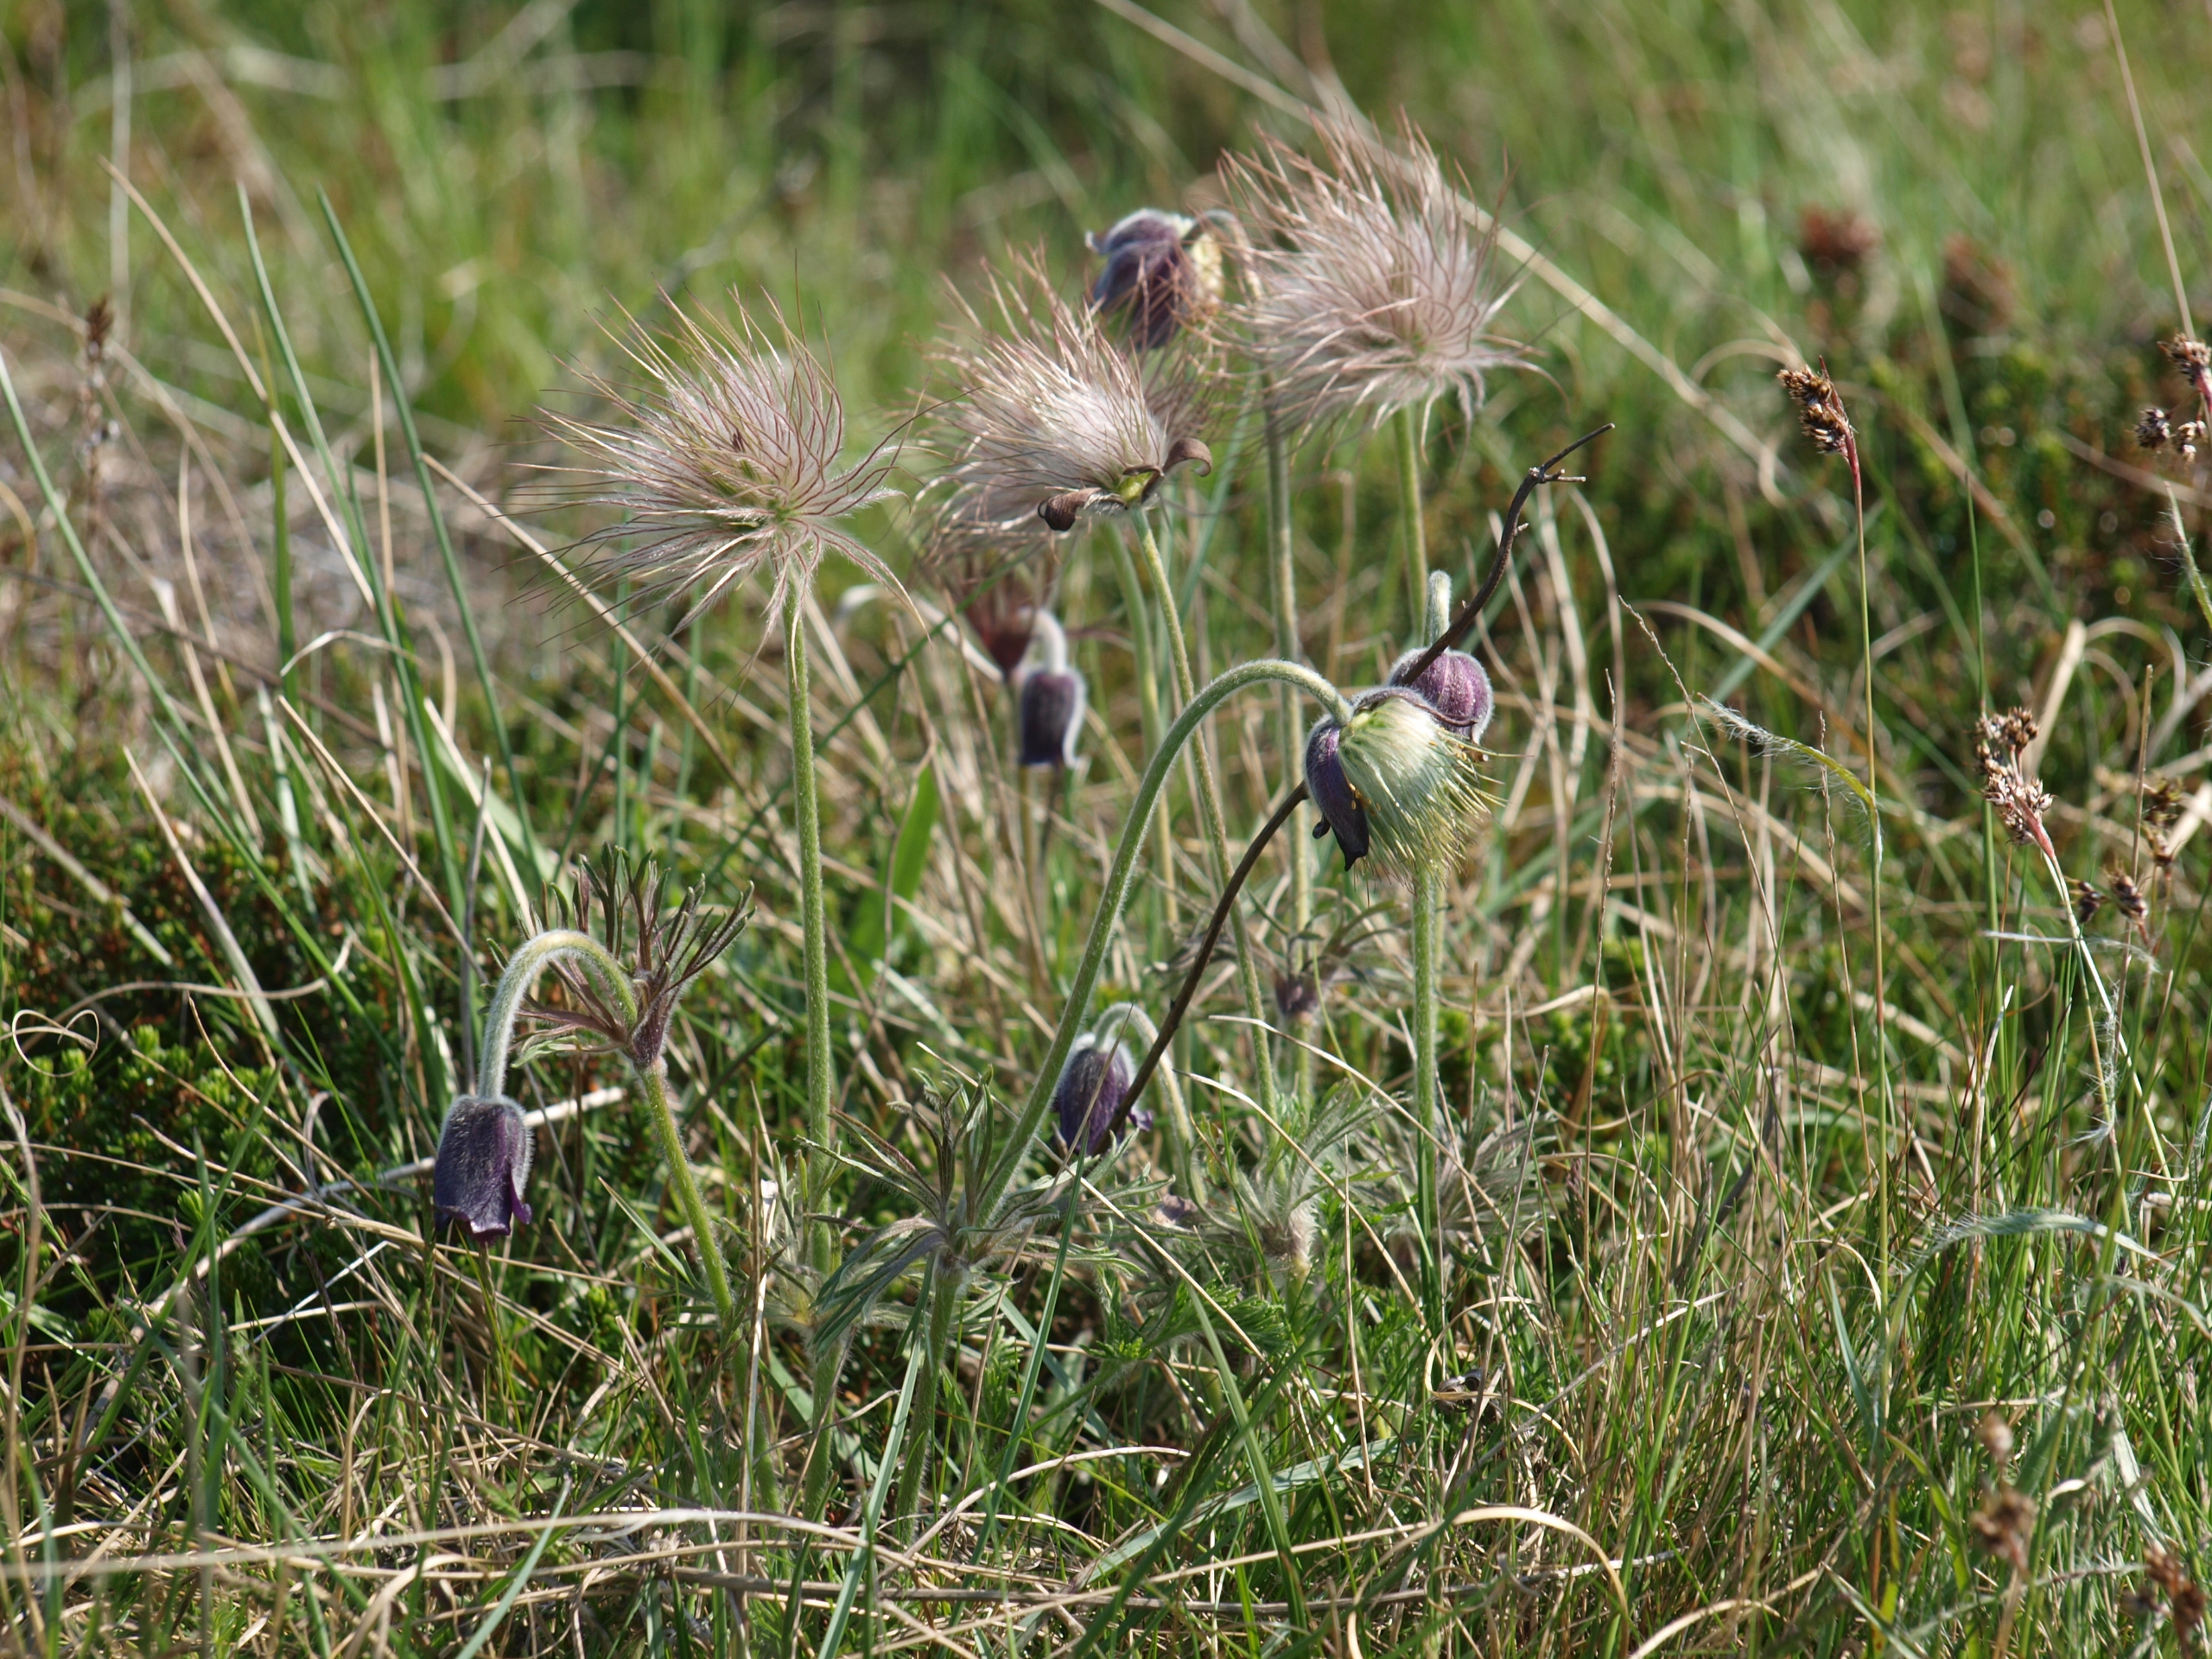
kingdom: Plantae
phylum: Tracheophyta
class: Magnoliopsida
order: Ranunculales
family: Ranunculaceae
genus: Pulsatilla
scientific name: Pulsatilla pratensis
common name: Nikkende kobjælde
